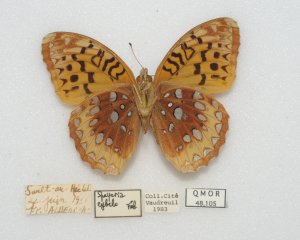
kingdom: Animalia
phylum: Arthropoda
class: Insecta
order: Lepidoptera
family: Nymphalidae
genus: Speyeria
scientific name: Speyeria cybele
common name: Great Spangled Fritillary
